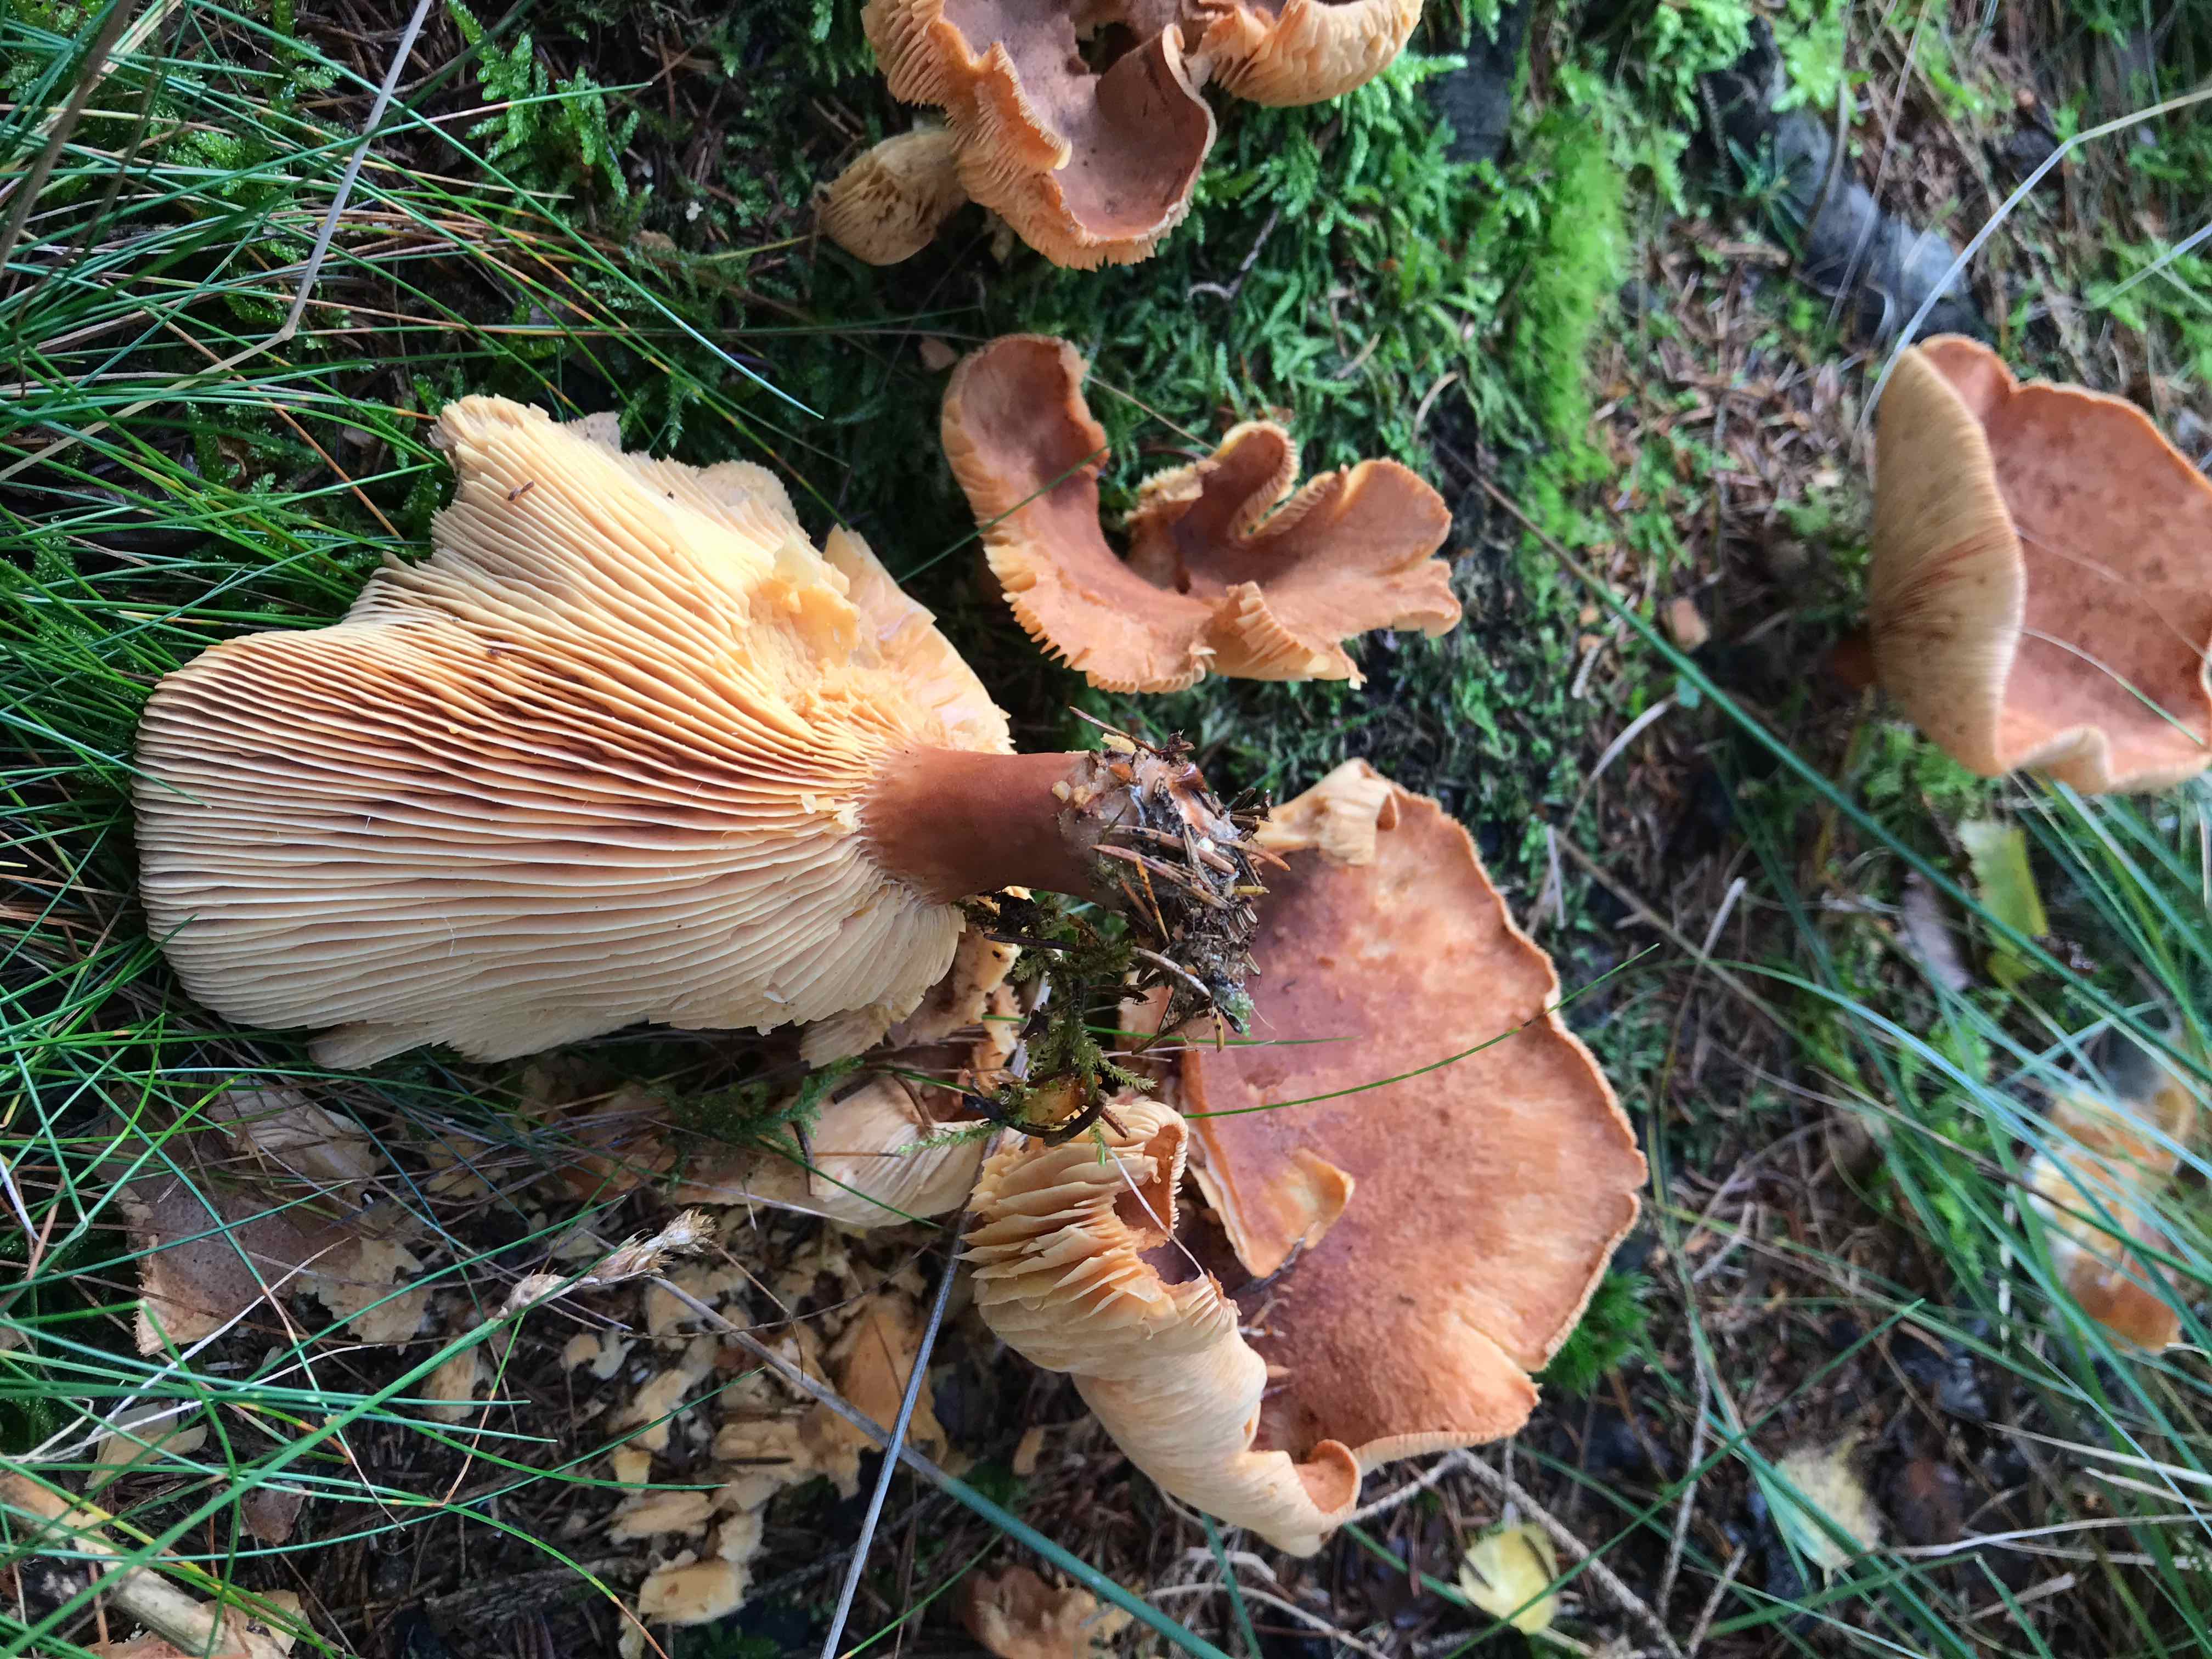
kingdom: Fungi
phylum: Basidiomycota
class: Agaricomycetes
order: Russulales
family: Russulaceae
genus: Lactarius
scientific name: Lactarius helvus
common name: mose-mælkehat
